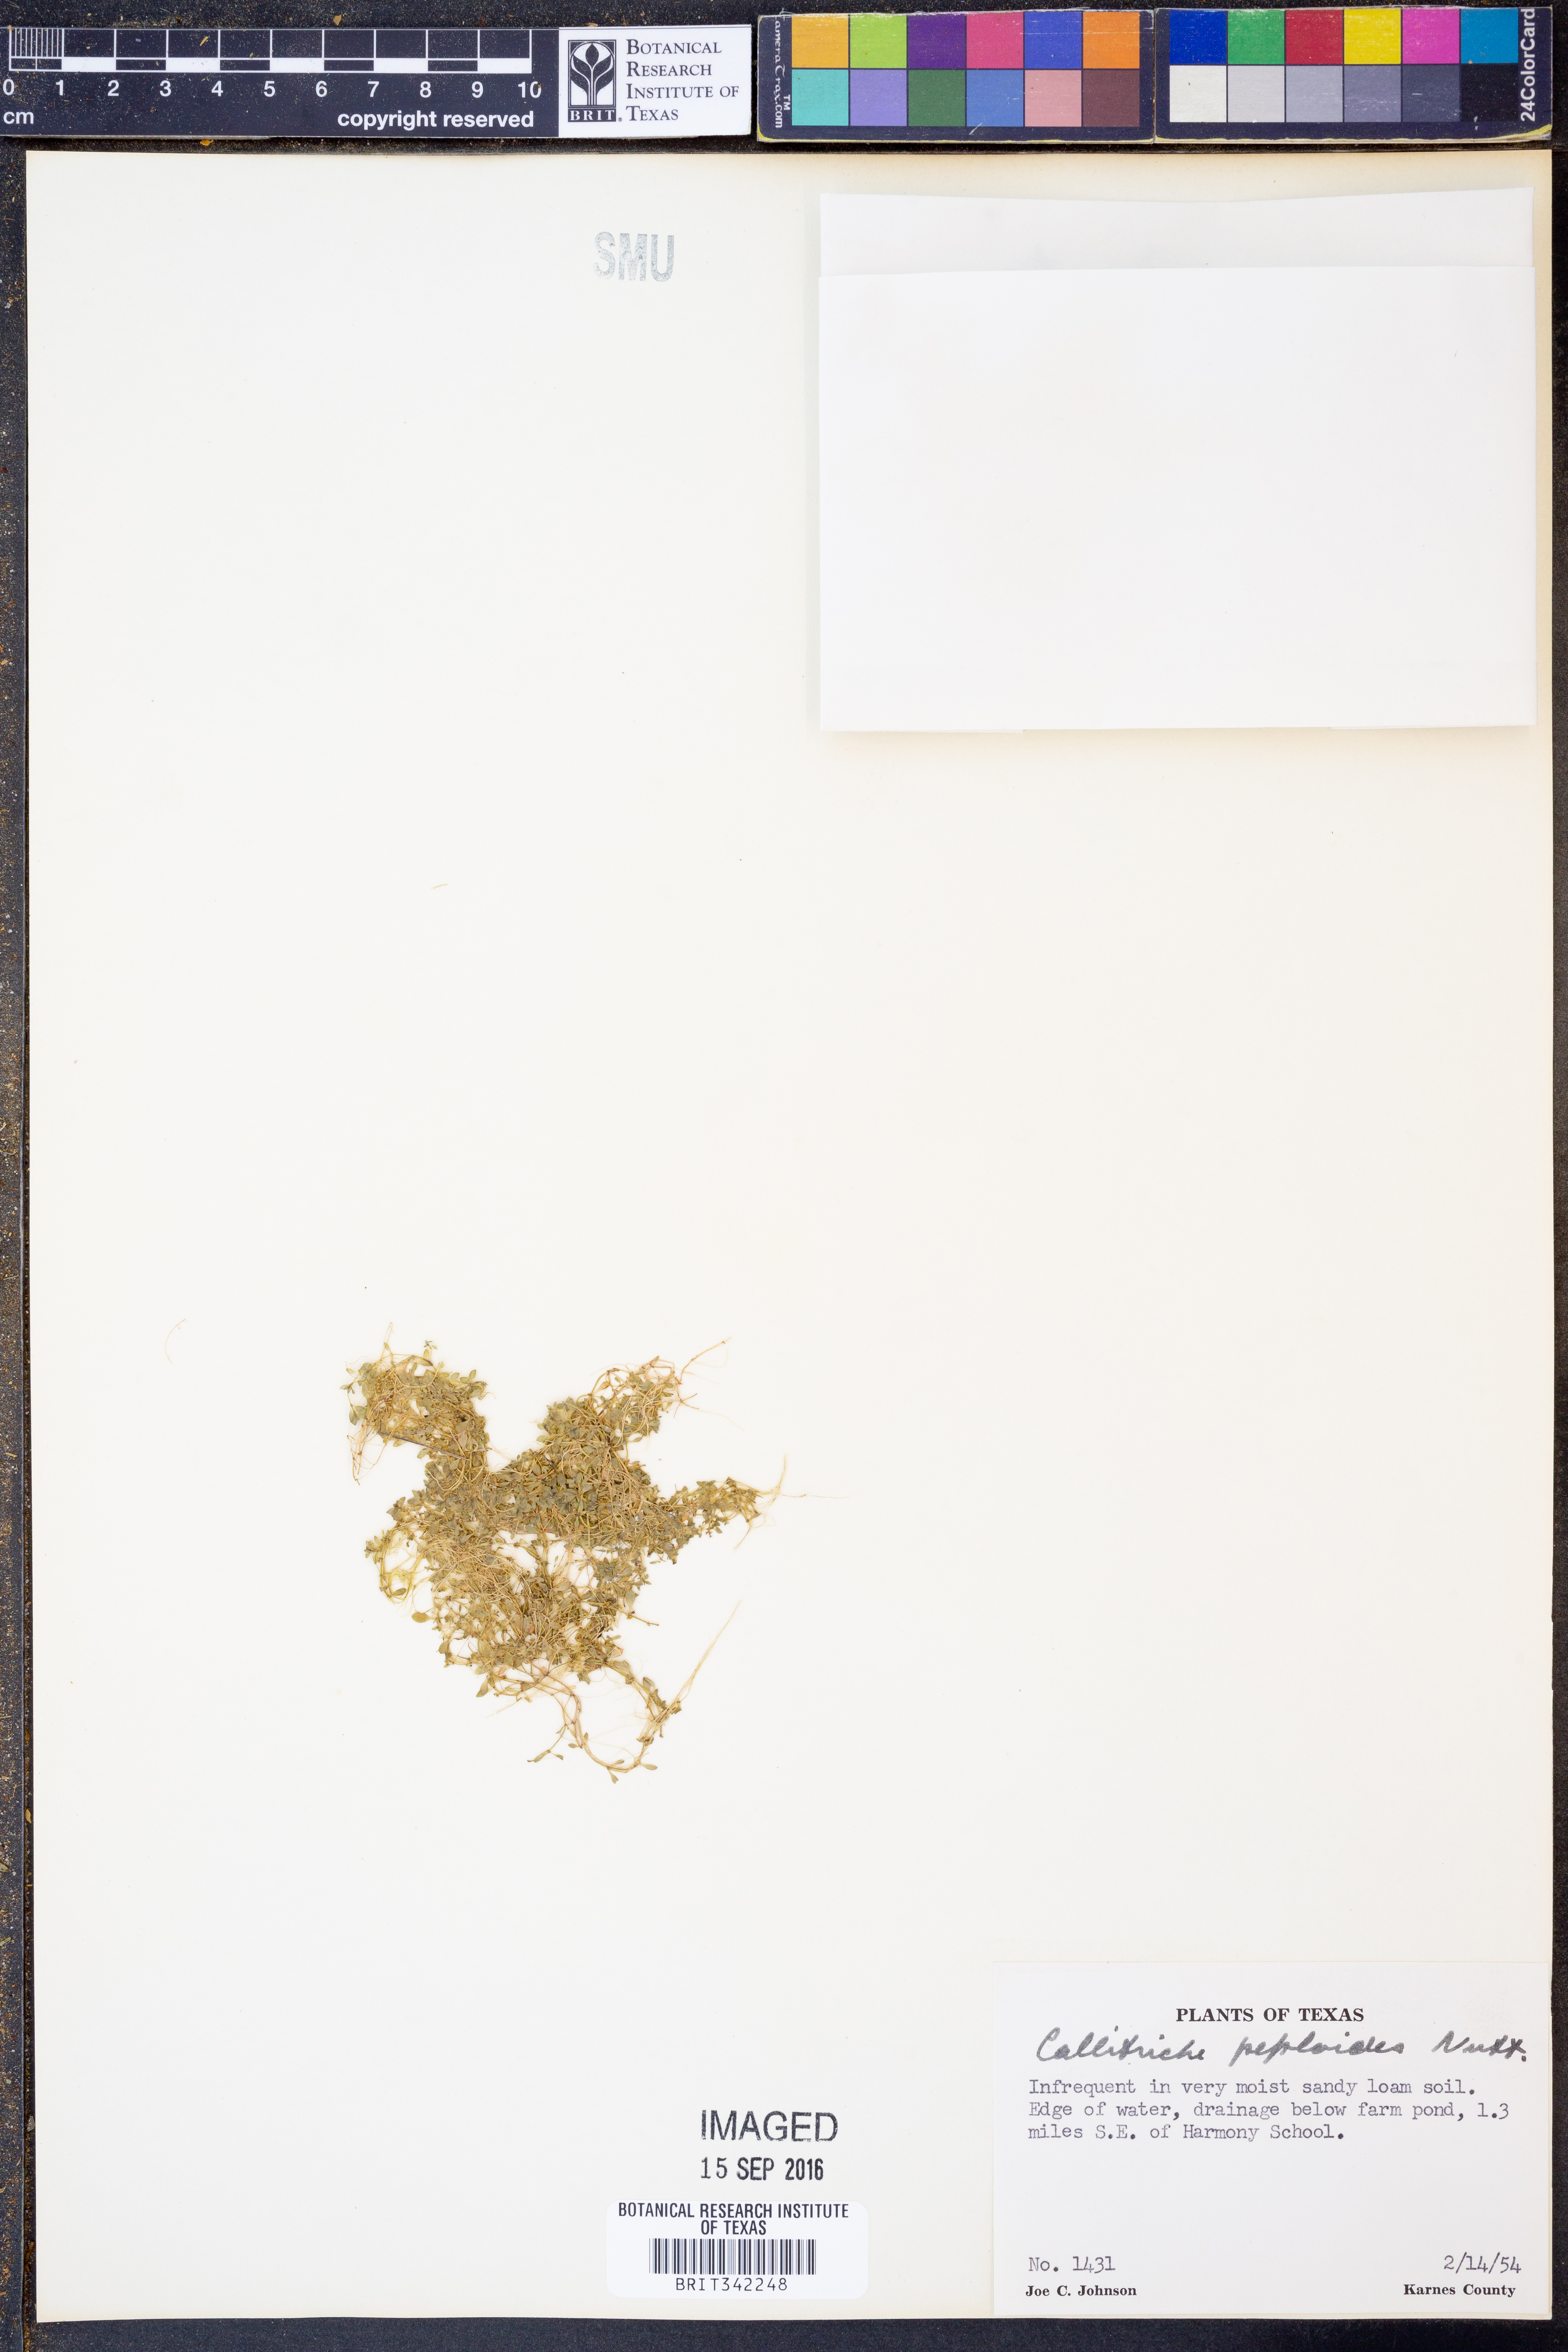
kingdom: Plantae
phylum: Tracheophyta
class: Magnoliopsida
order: Lamiales
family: Plantaginaceae
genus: Callitriche
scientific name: Callitriche peploides
